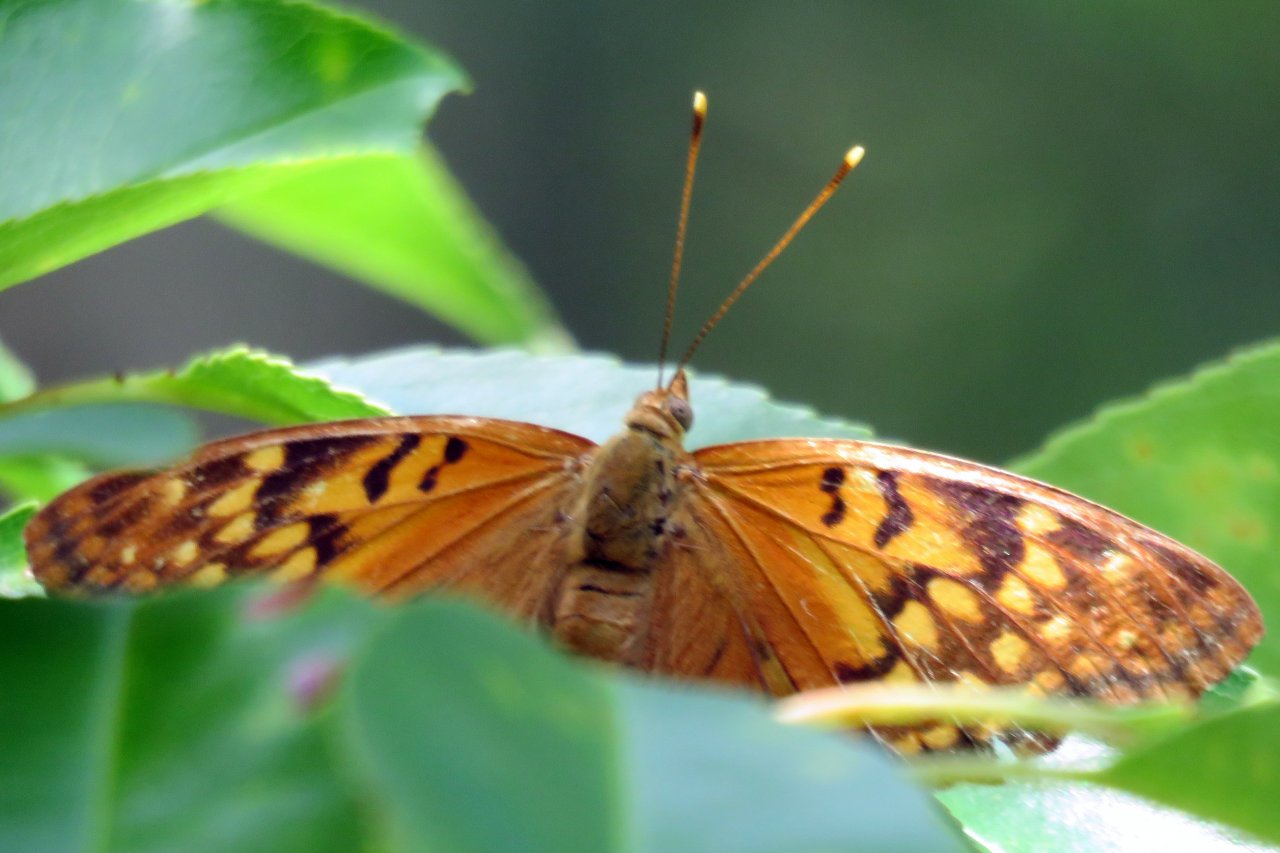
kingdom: Animalia
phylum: Arthropoda
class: Insecta
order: Lepidoptera
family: Nymphalidae
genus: Euptoieta
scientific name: Euptoieta claudia
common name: Variegated Fritillary
